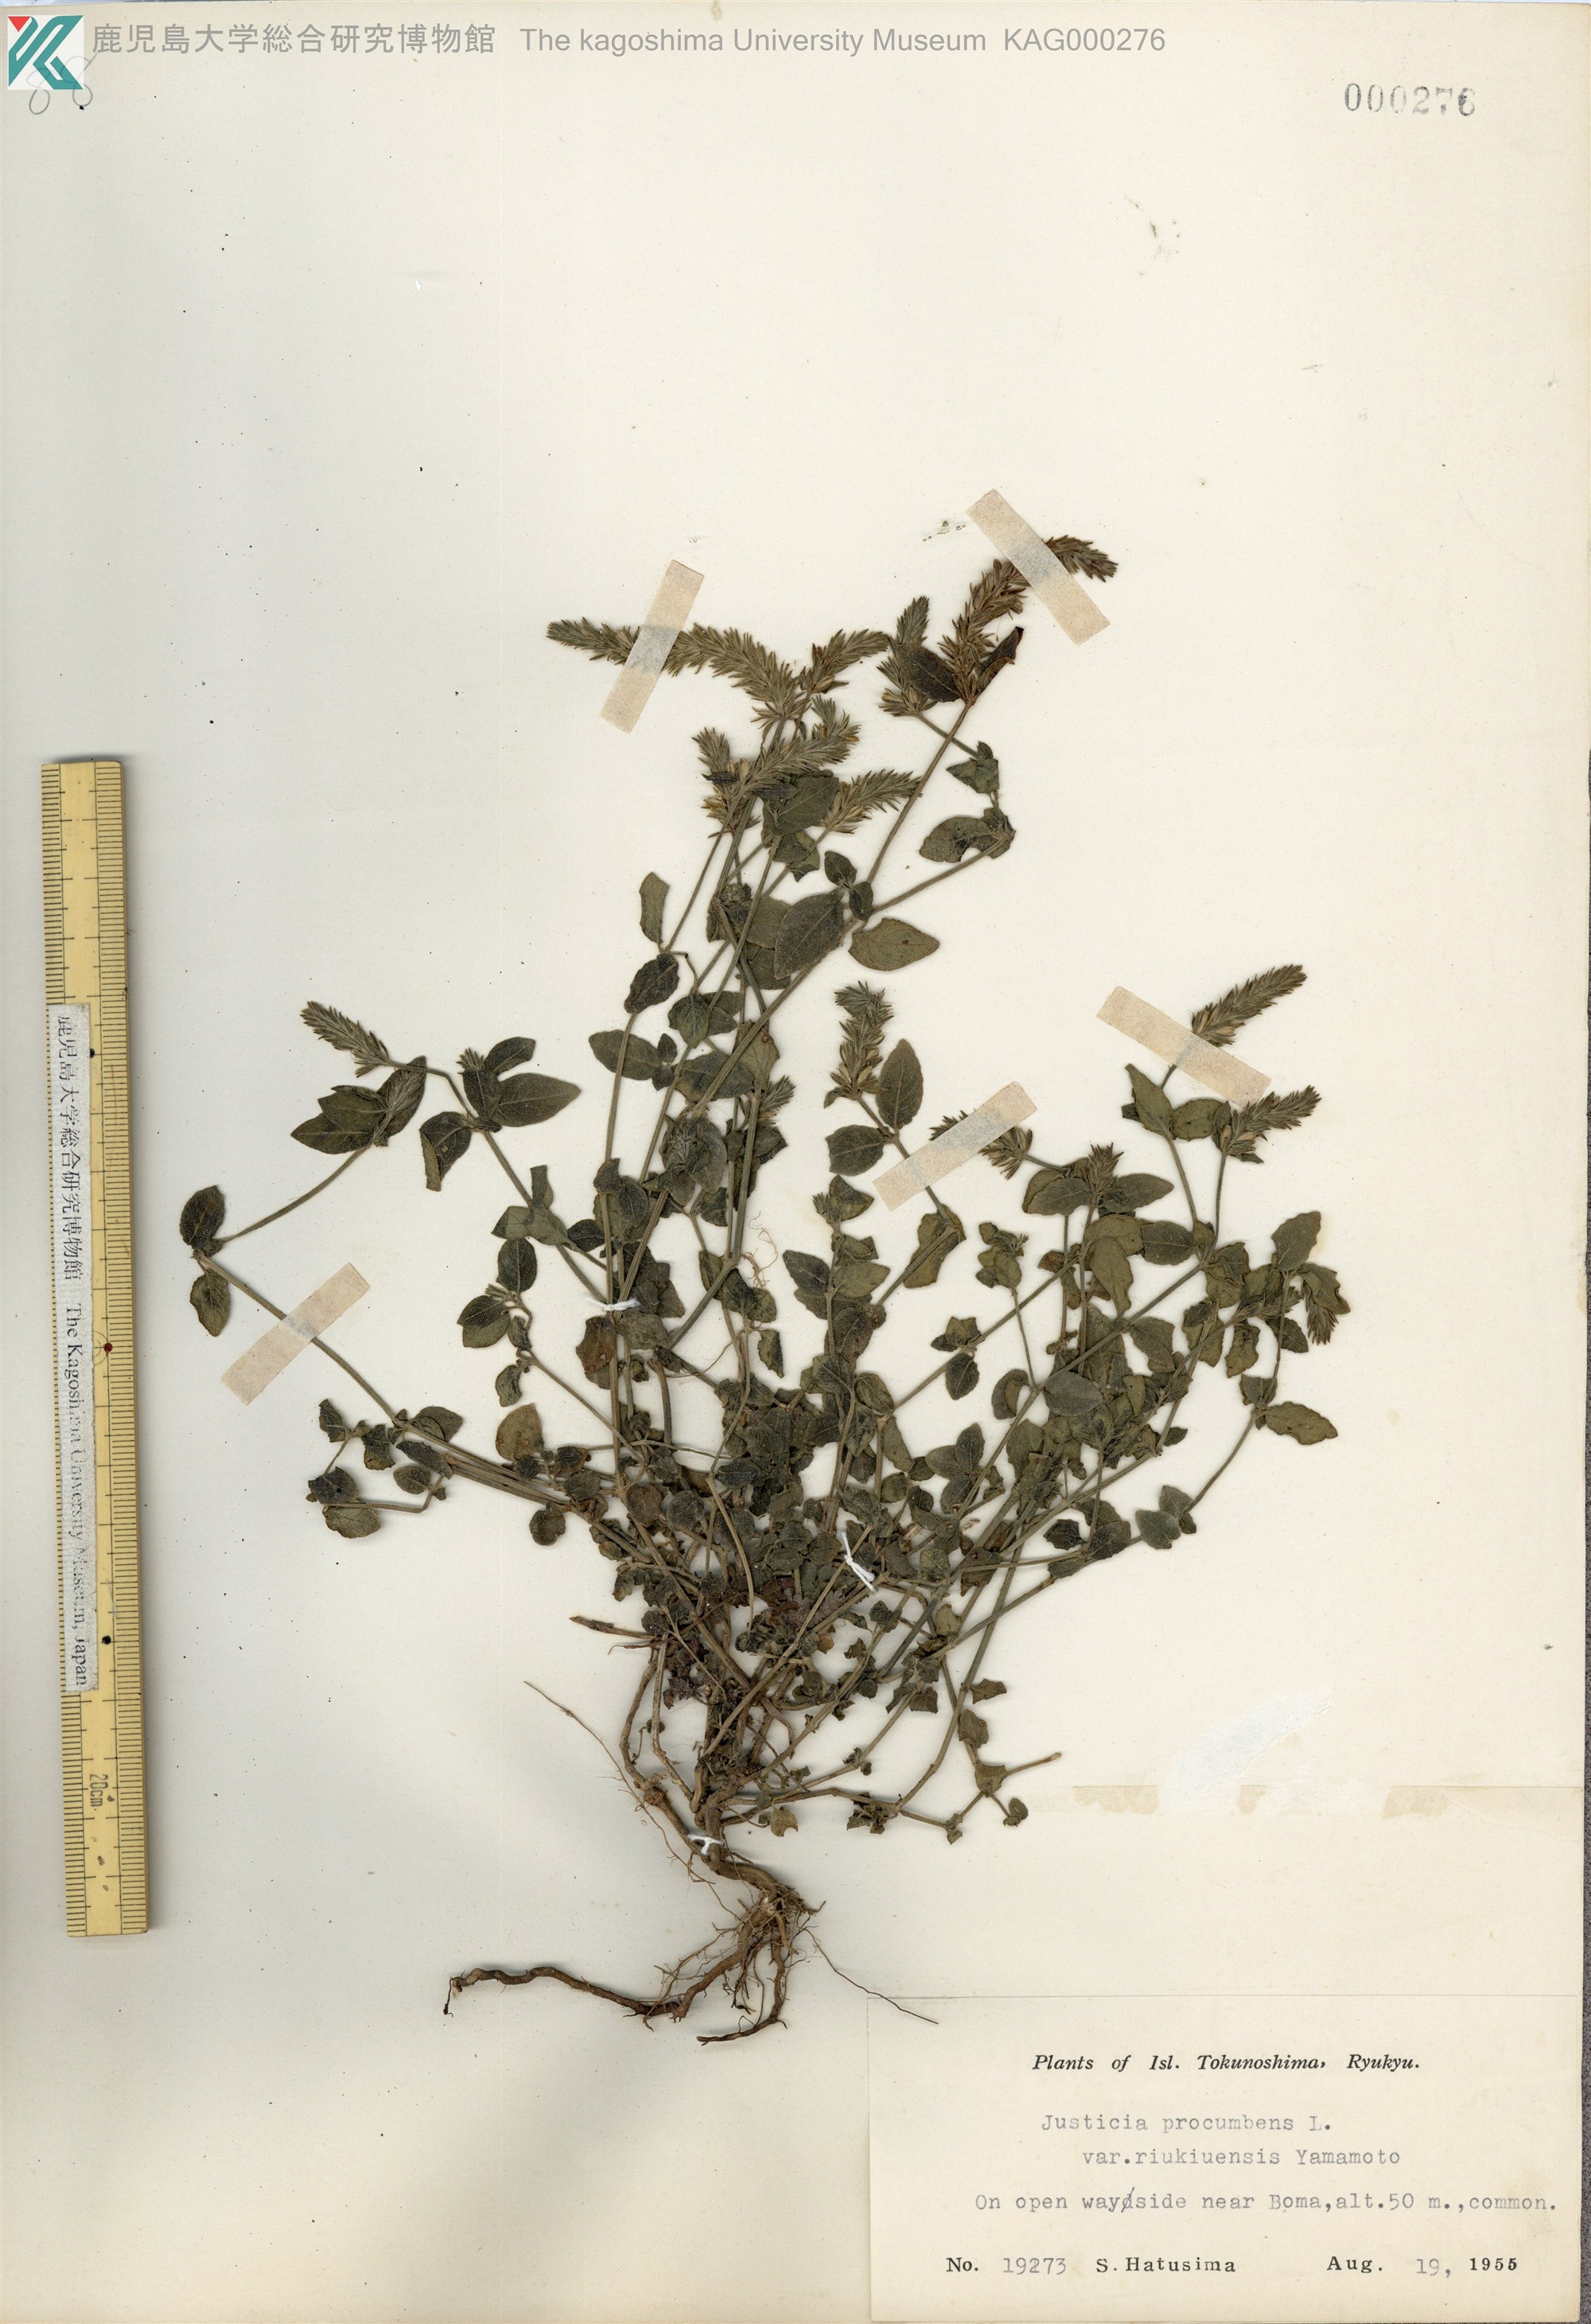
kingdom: Plantae
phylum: Tracheophyta
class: Magnoliopsida
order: Lamiales
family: Acanthaceae
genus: Rostellularia
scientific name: Rostellularia procumbens
